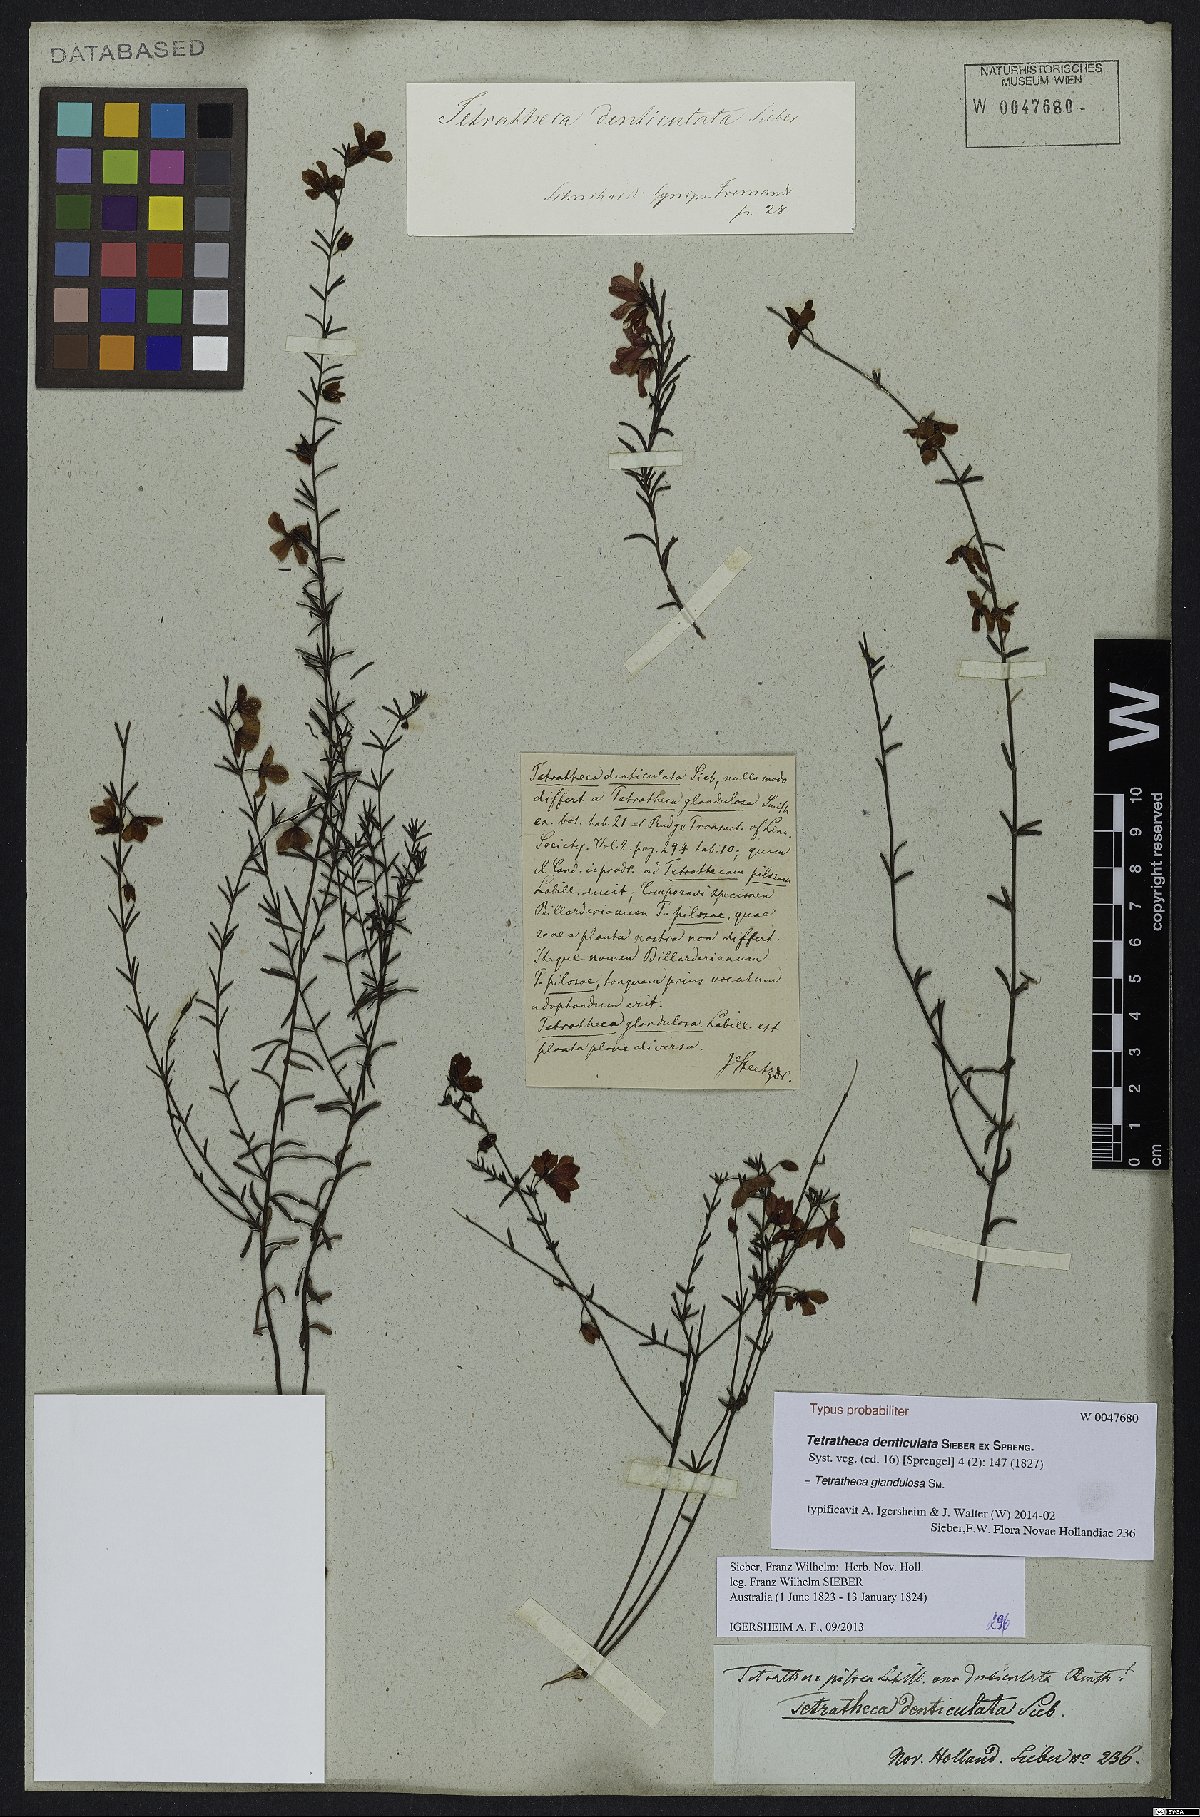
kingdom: Plantae
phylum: Tracheophyta
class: Magnoliopsida
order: Oxalidales
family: Elaeocarpaceae
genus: Tetratheca
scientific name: Tetratheca glandulosa
